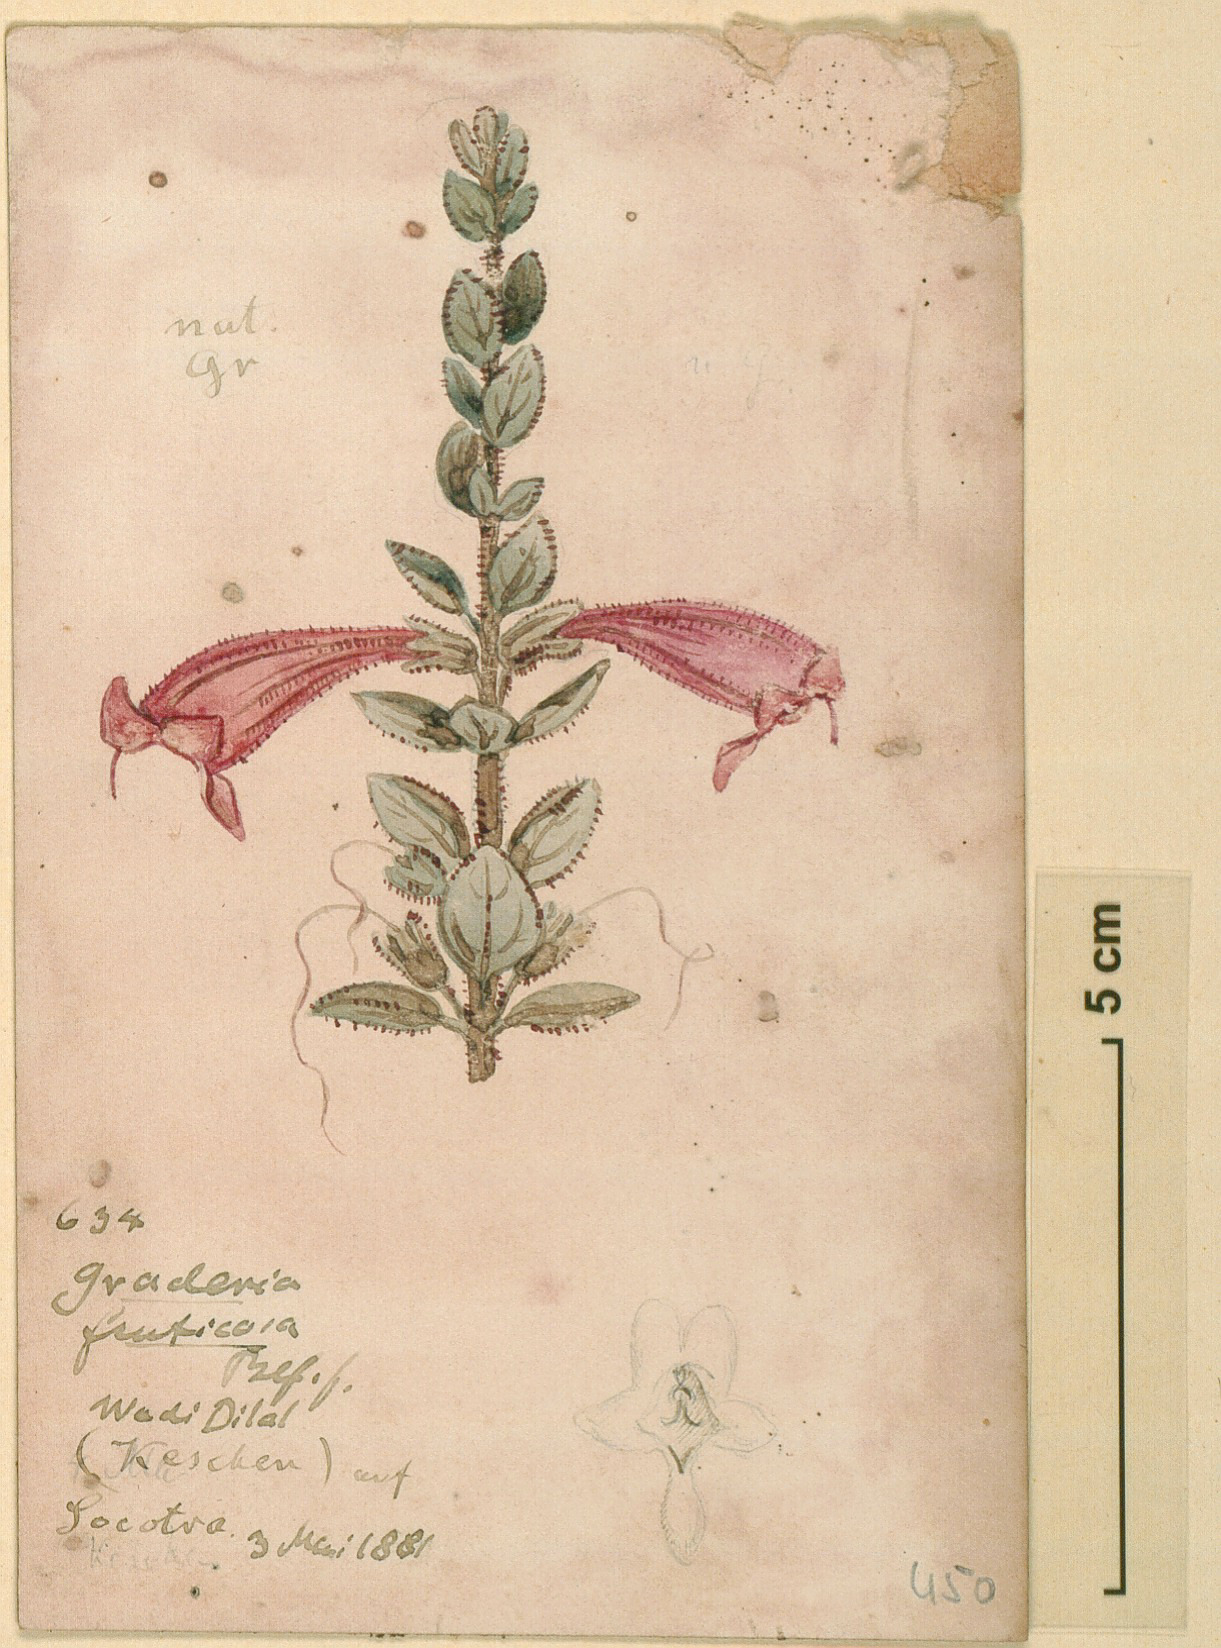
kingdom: Plantae
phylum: Tracheophyta
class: Magnoliopsida
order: Lamiales
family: Orobanchaceae
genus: Graderia
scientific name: Graderia fruticosa
